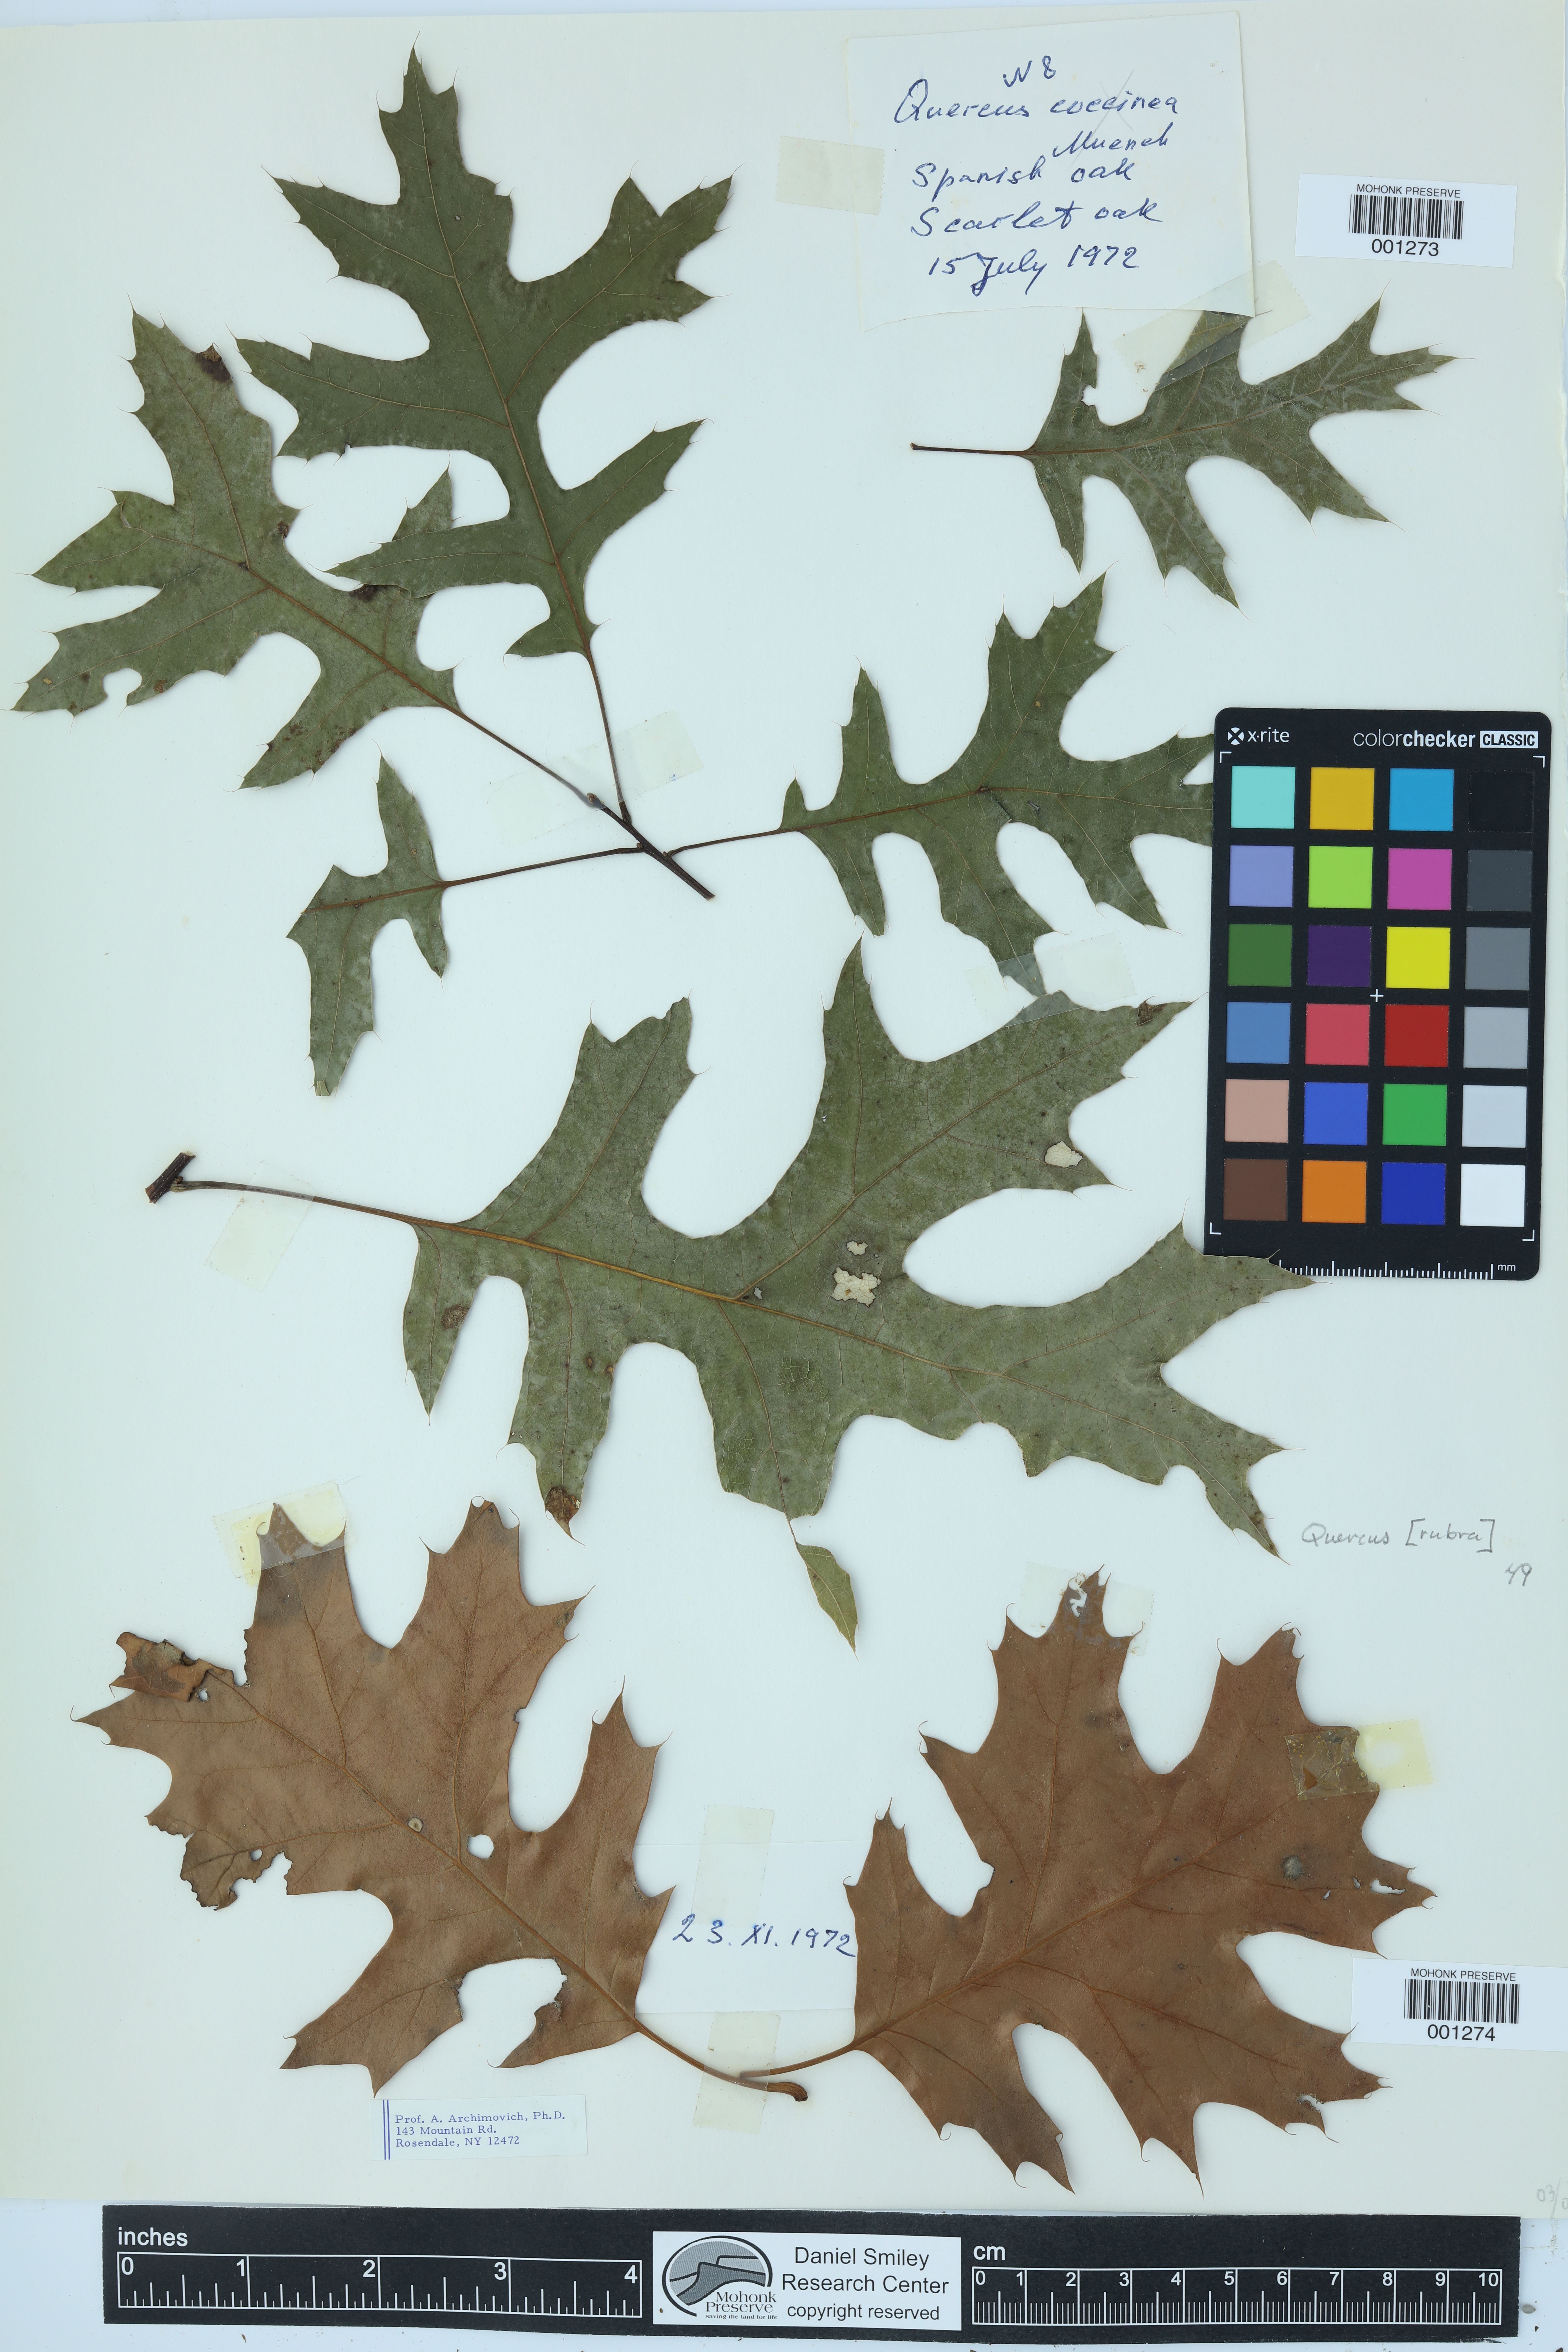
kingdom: Plantae
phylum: Tracheophyta
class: Magnoliopsida
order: Fagales
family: Fagaceae
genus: Quercus
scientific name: Quercus rubra
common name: Red oak
